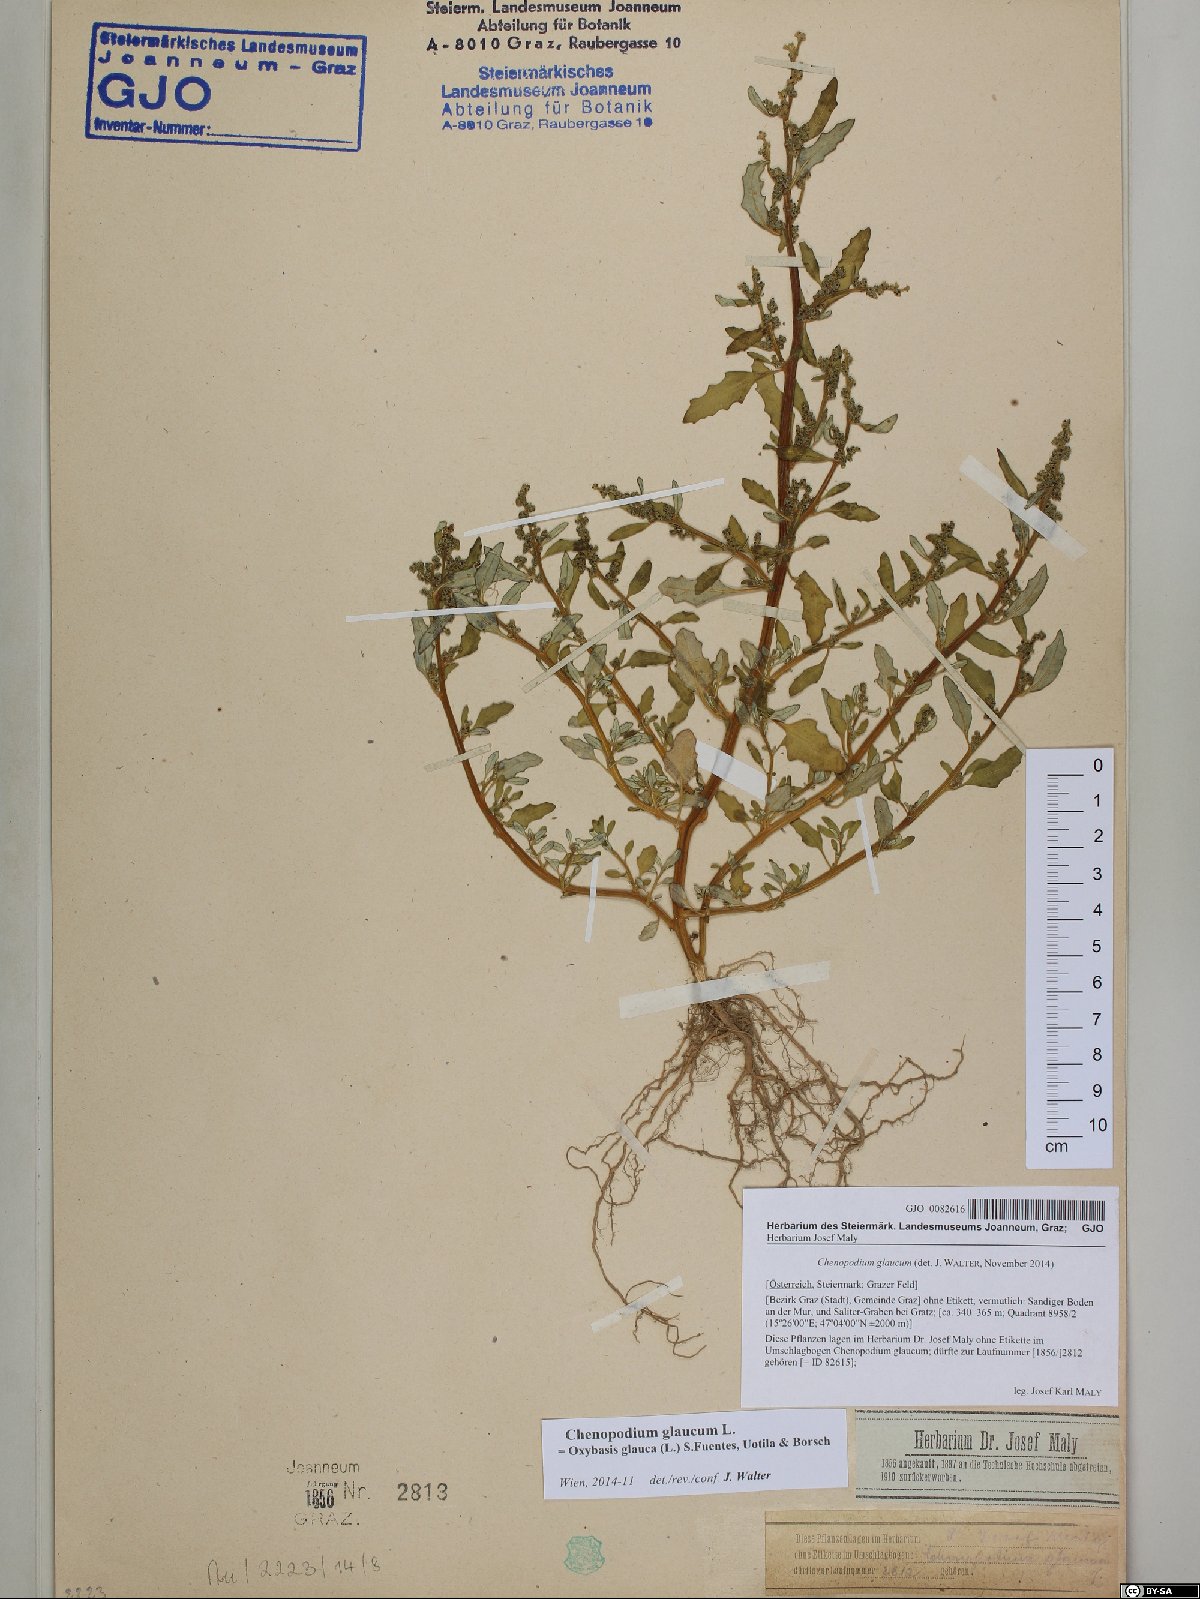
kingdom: Plantae
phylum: Tracheophyta
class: Magnoliopsida
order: Caryophyllales
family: Amaranthaceae
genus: Oxybasis
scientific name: Oxybasis glauca
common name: Glaucous goosefoot
